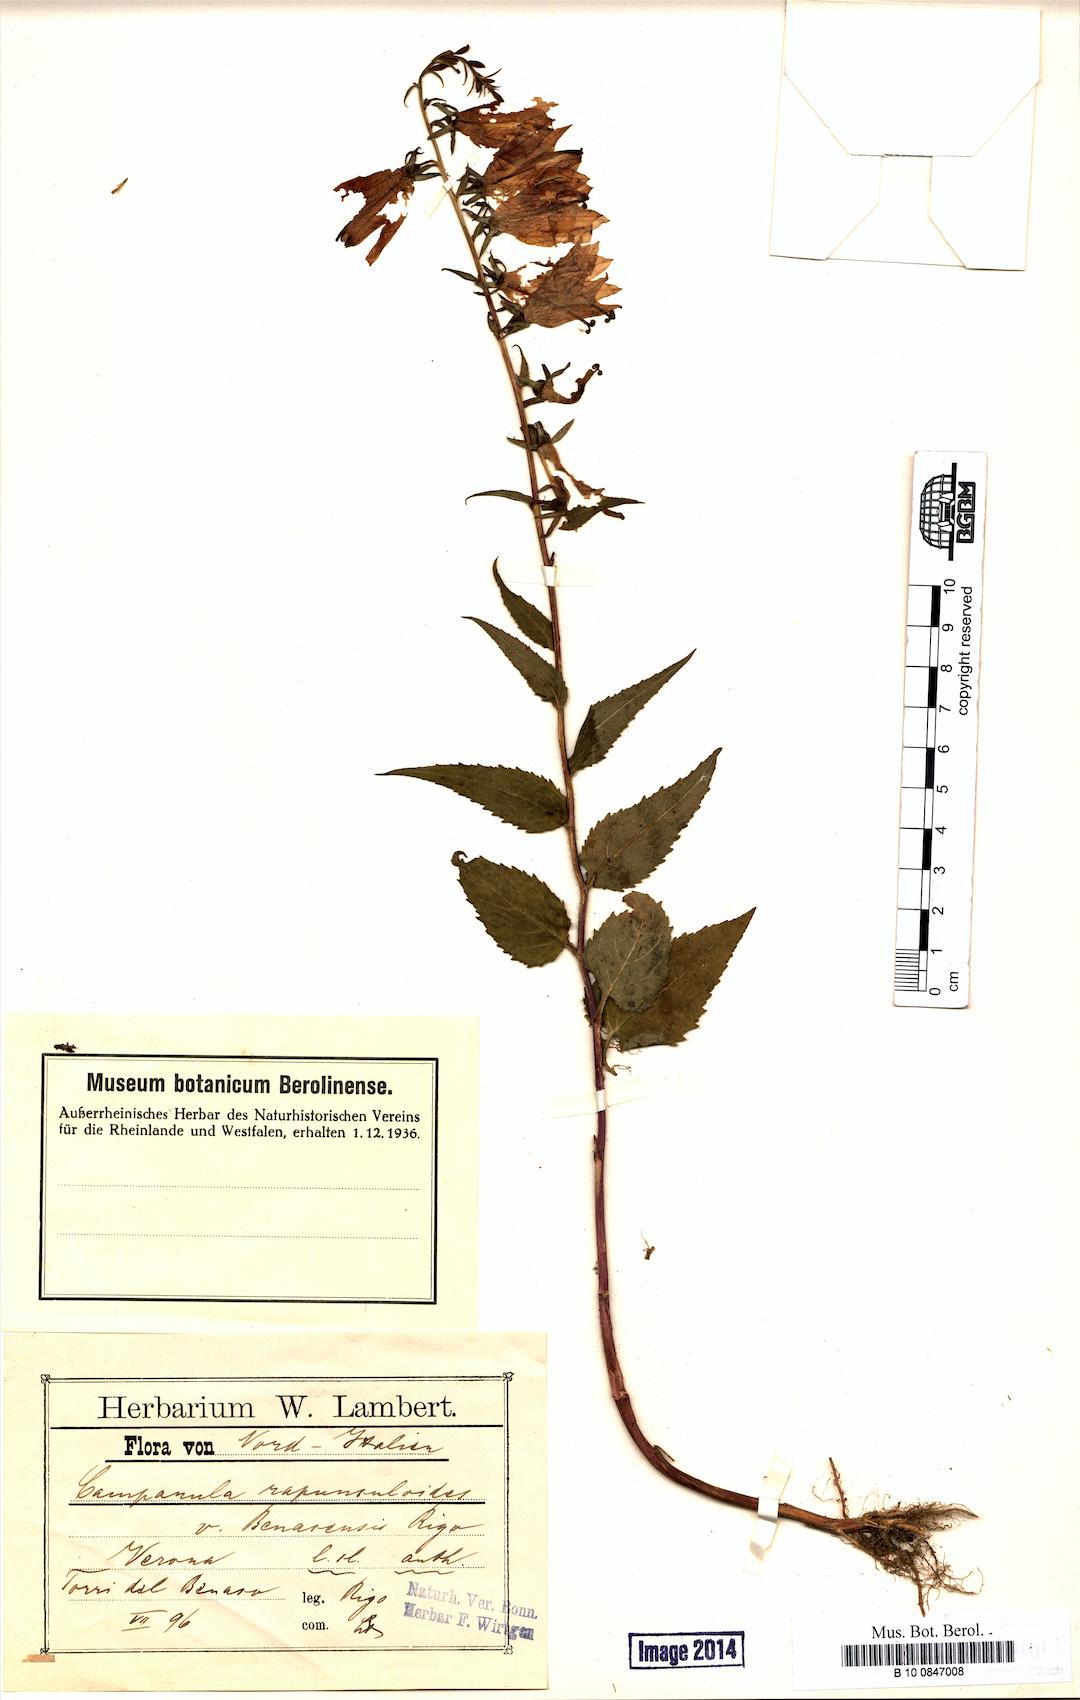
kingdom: Plantae
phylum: Tracheophyta
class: Magnoliopsida
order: Asterales
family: Campanulaceae
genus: Campanula
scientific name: Campanula rapunculoides
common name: Creeping bellflower
